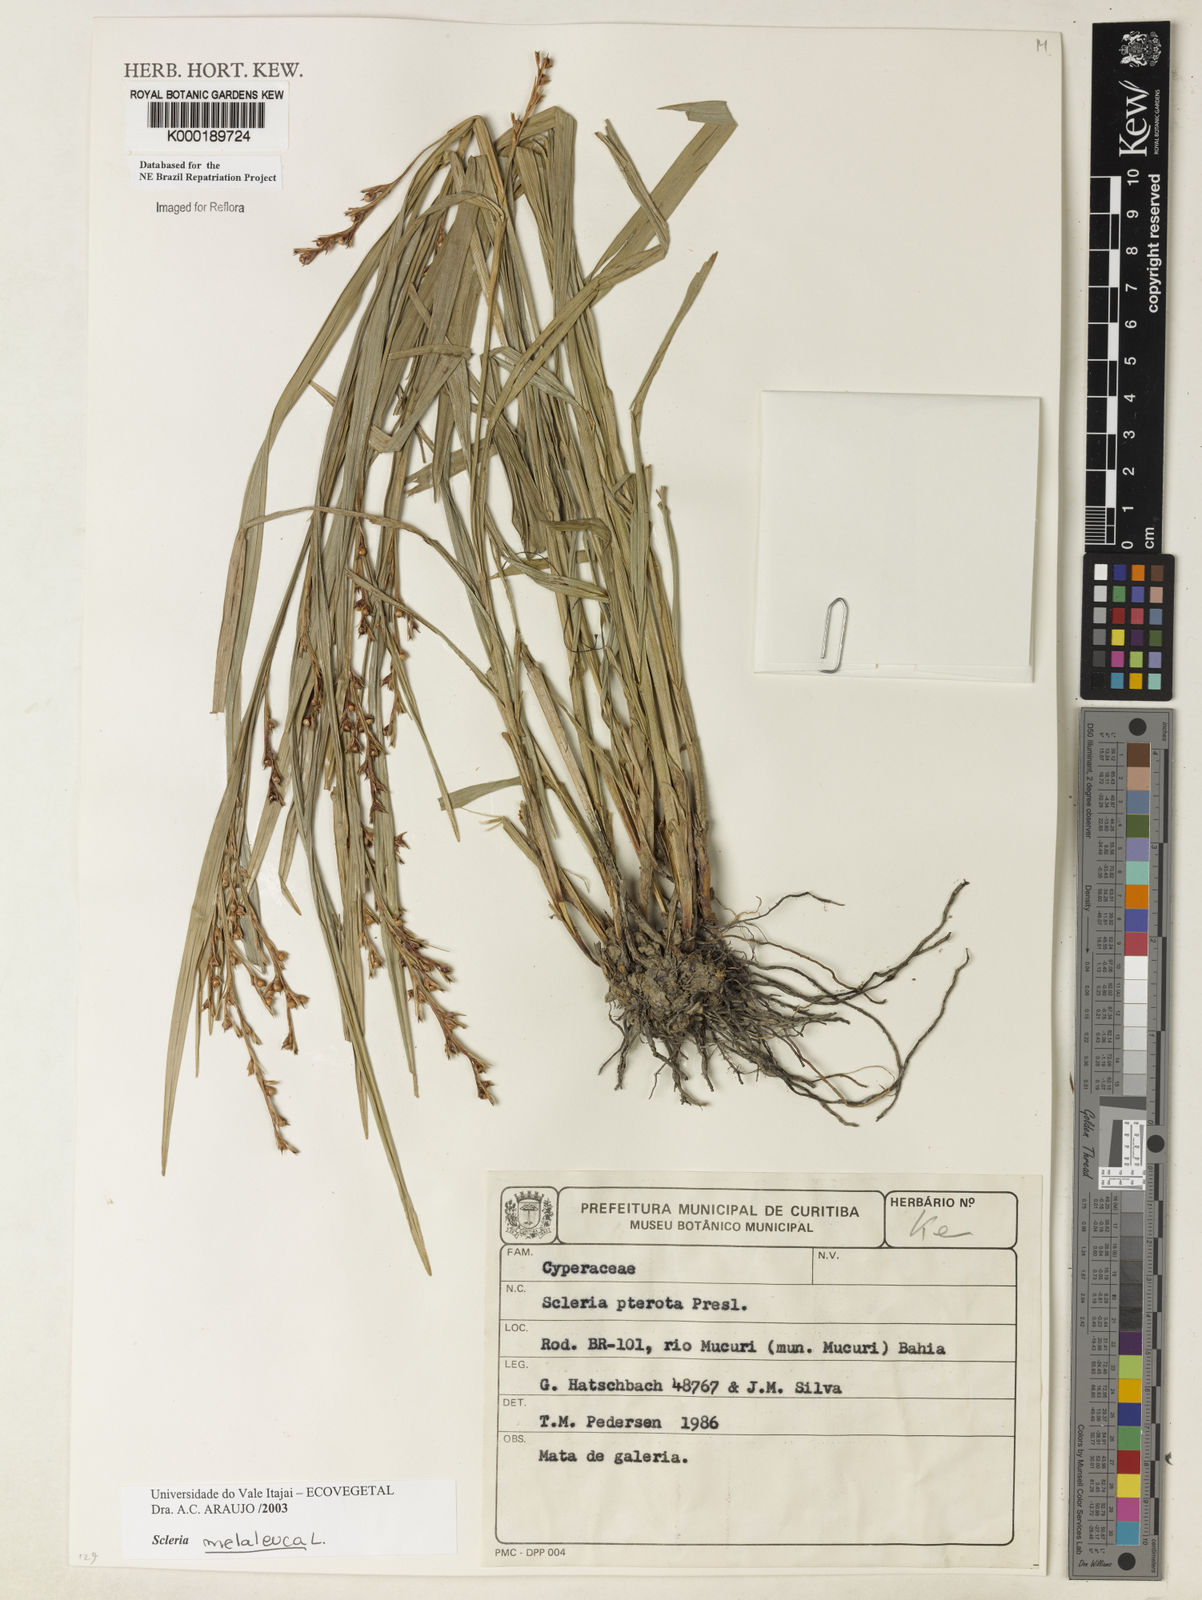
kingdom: Plantae
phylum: Tracheophyta
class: Liliopsida
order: Poales
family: Cyperaceae
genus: Scleria
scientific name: Scleria gaertneri
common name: Cortadera blanca
